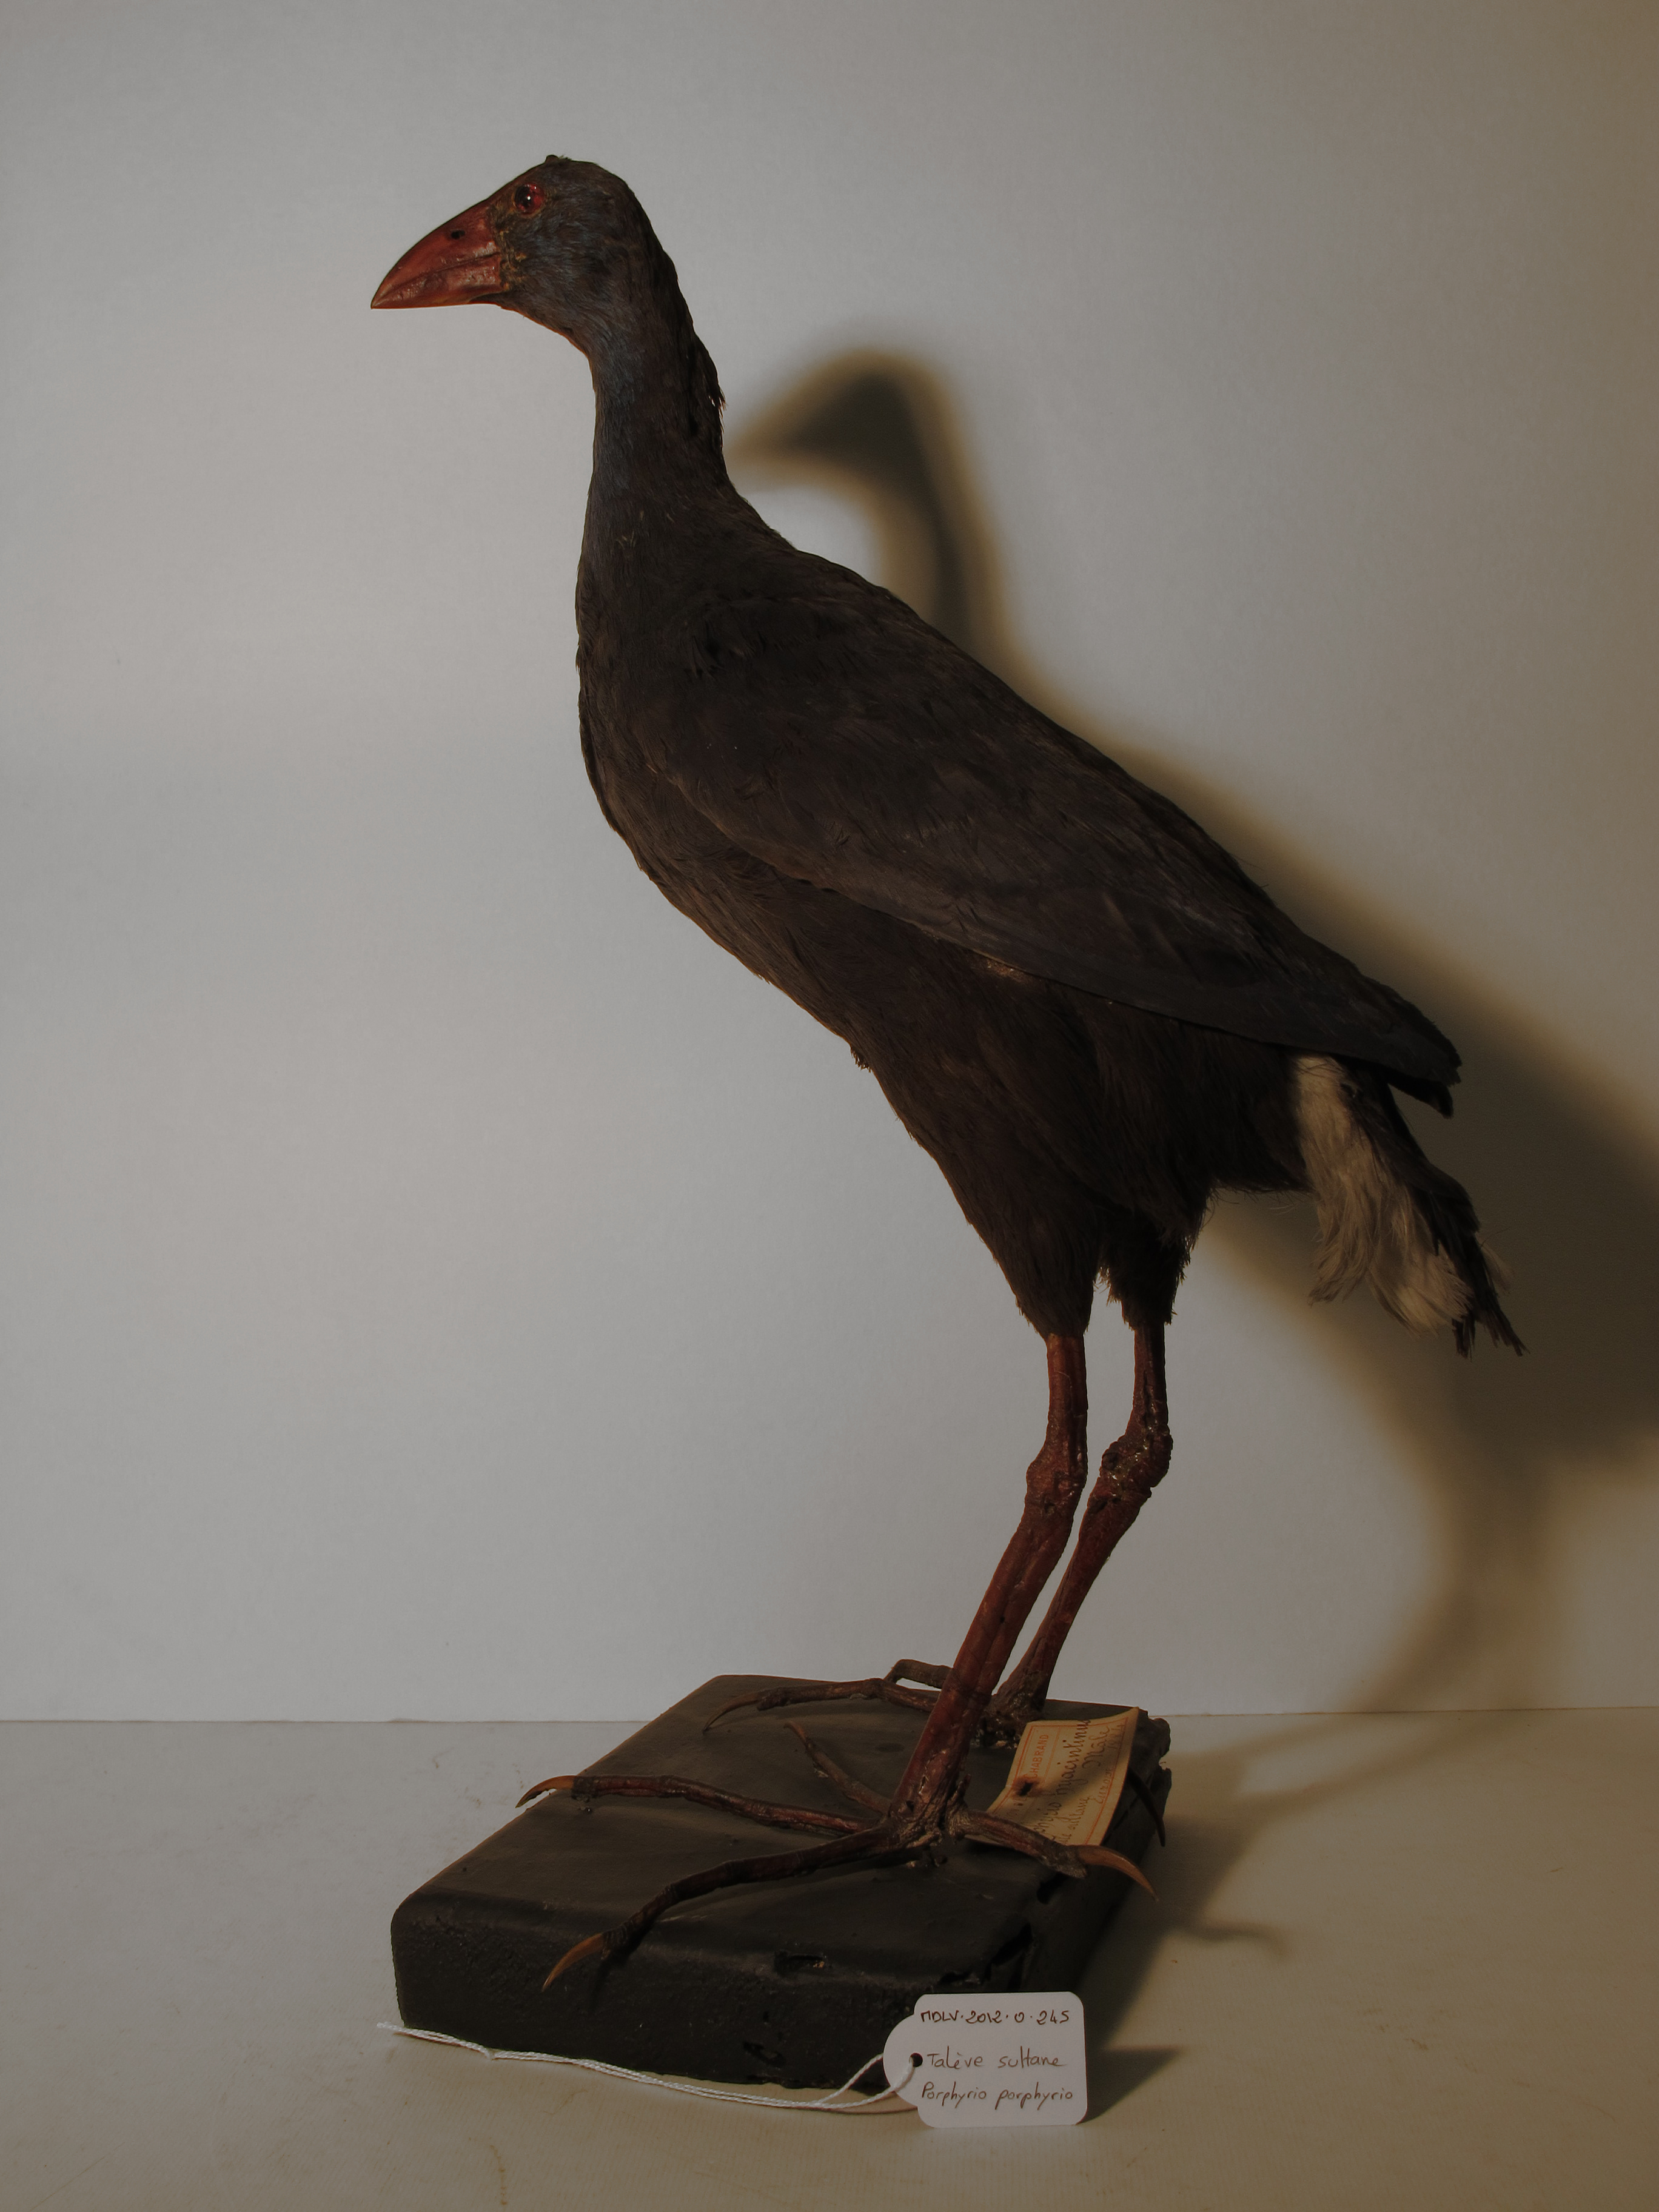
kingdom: Animalia
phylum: Chordata
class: Aves
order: Gruiformes
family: Rallidae
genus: Porphyrio
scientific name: Porphyrio porphyrio
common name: Purple Swamphen
